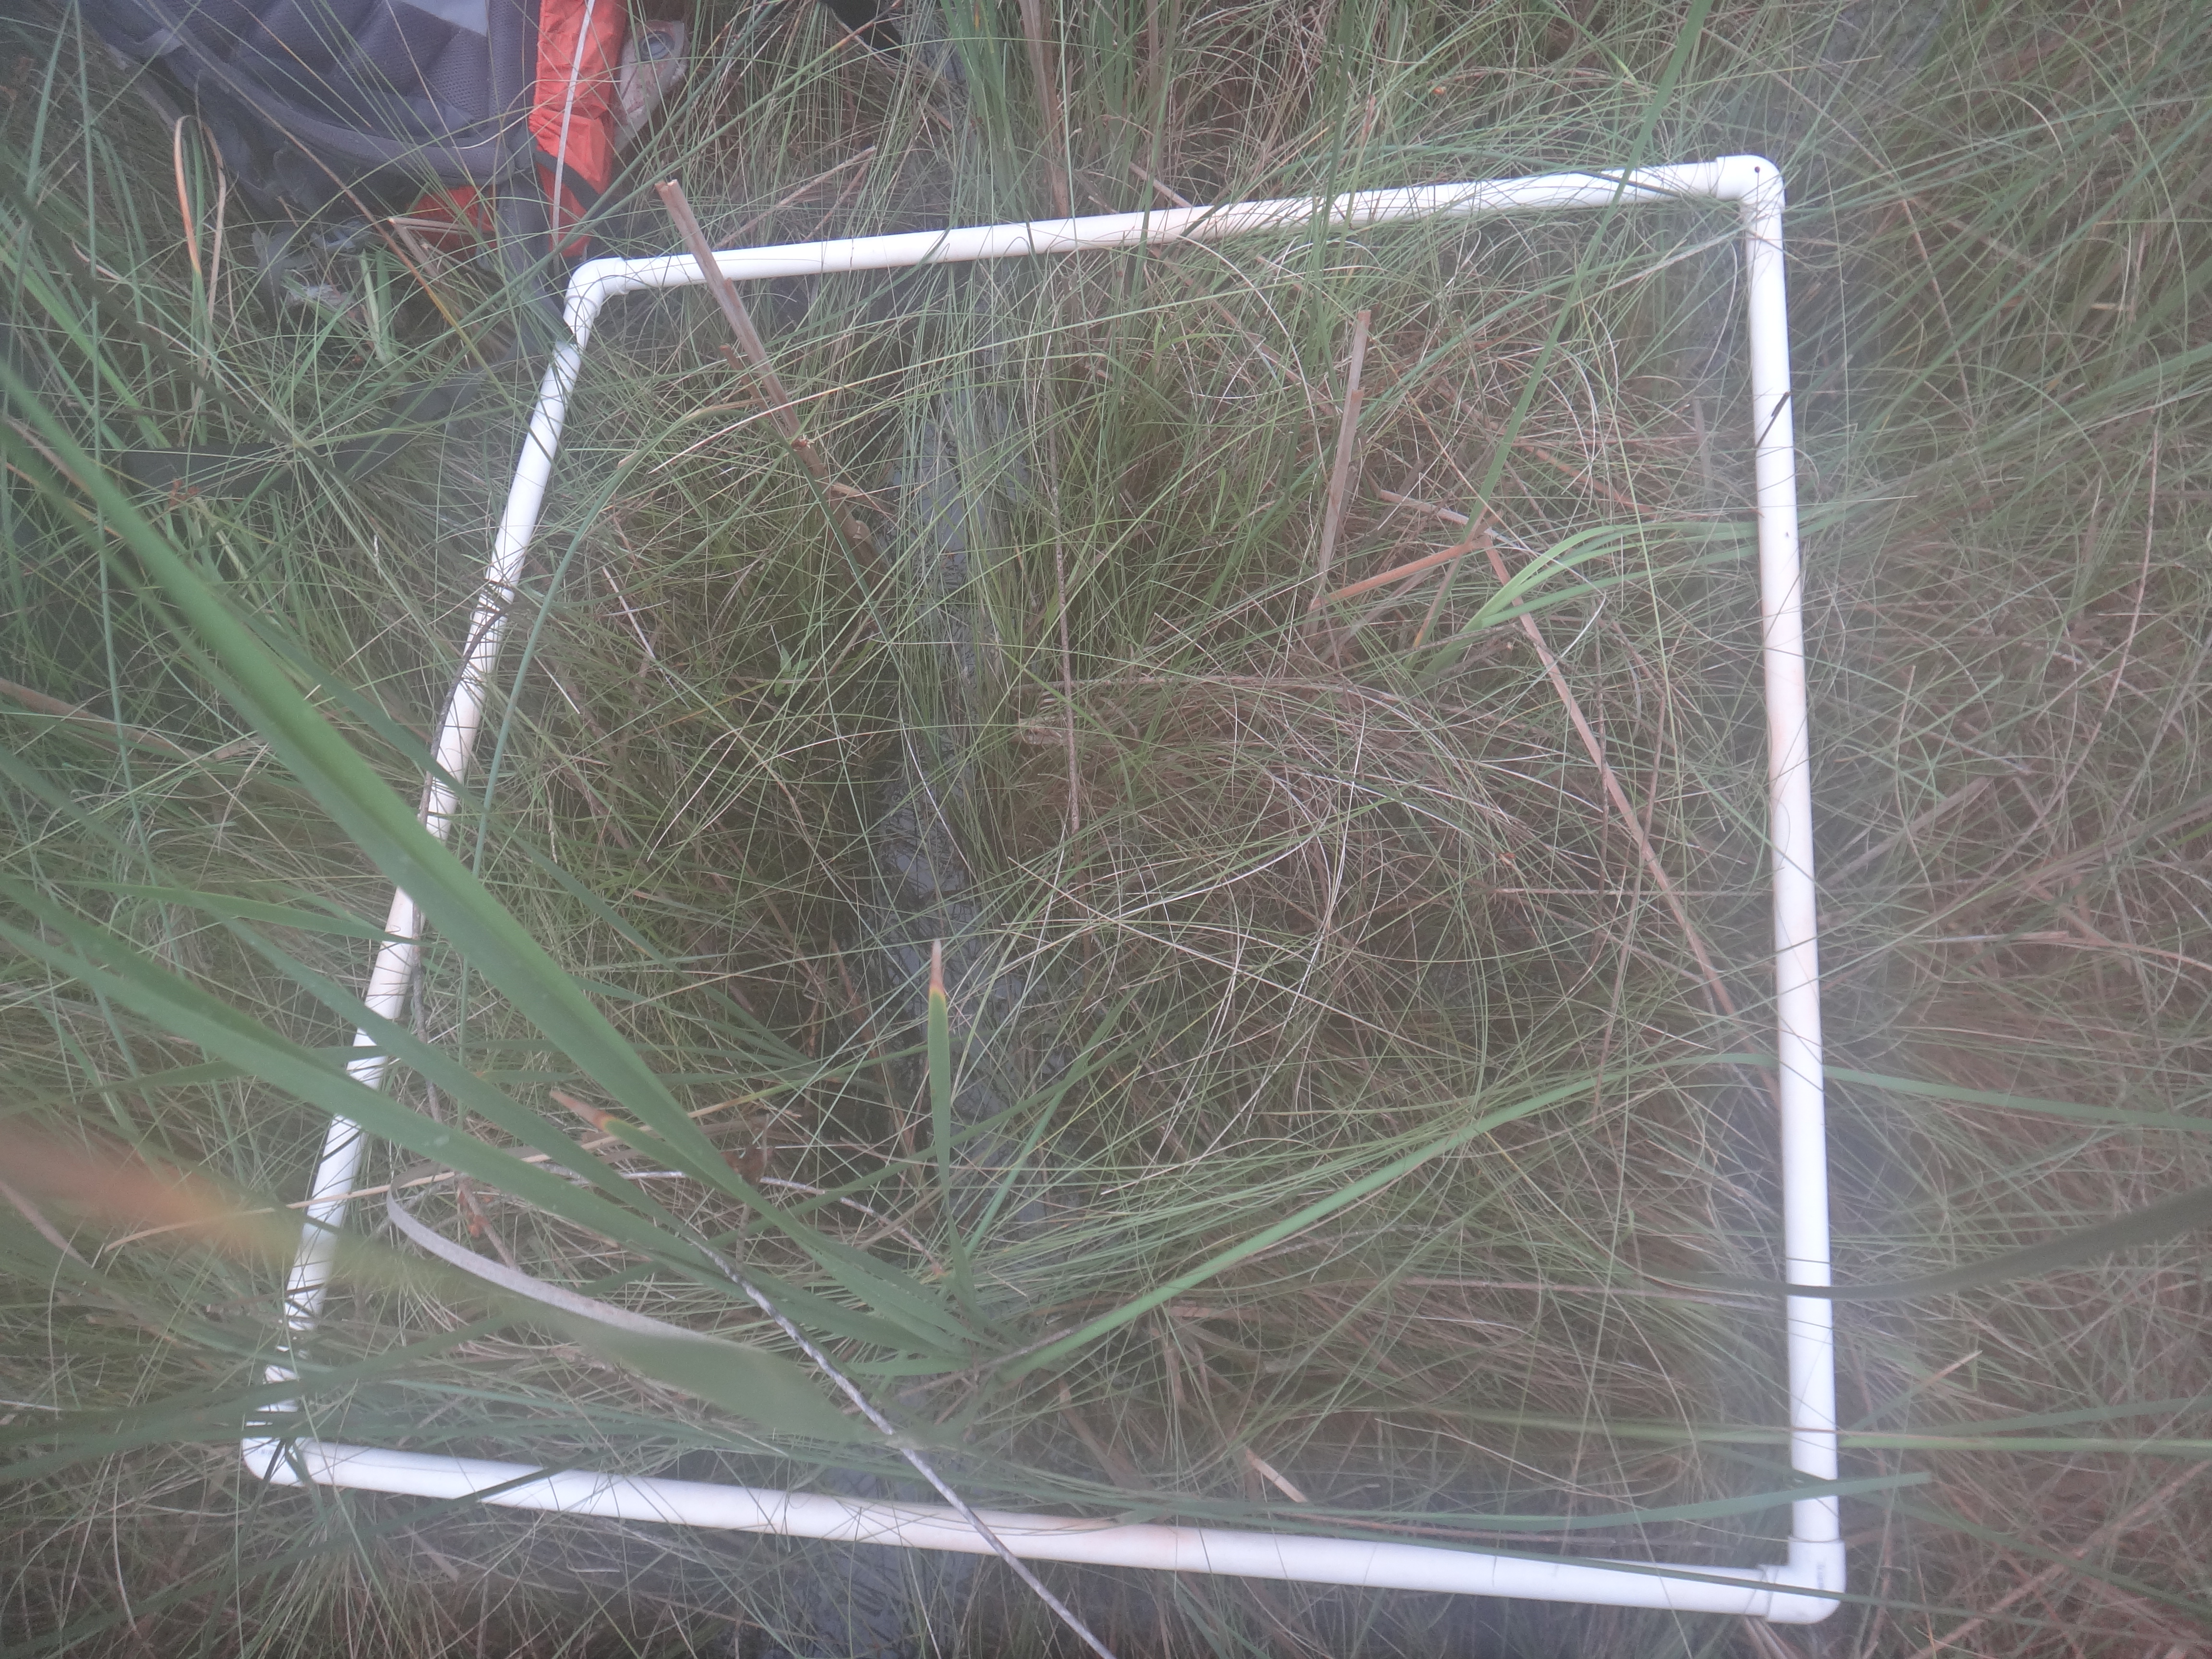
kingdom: Plantae
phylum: Tracheophyta
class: Magnoliopsida
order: Asterales
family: Asteraceae
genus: Bidens
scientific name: Bidens trichosperma
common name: Crowned beggarticks
